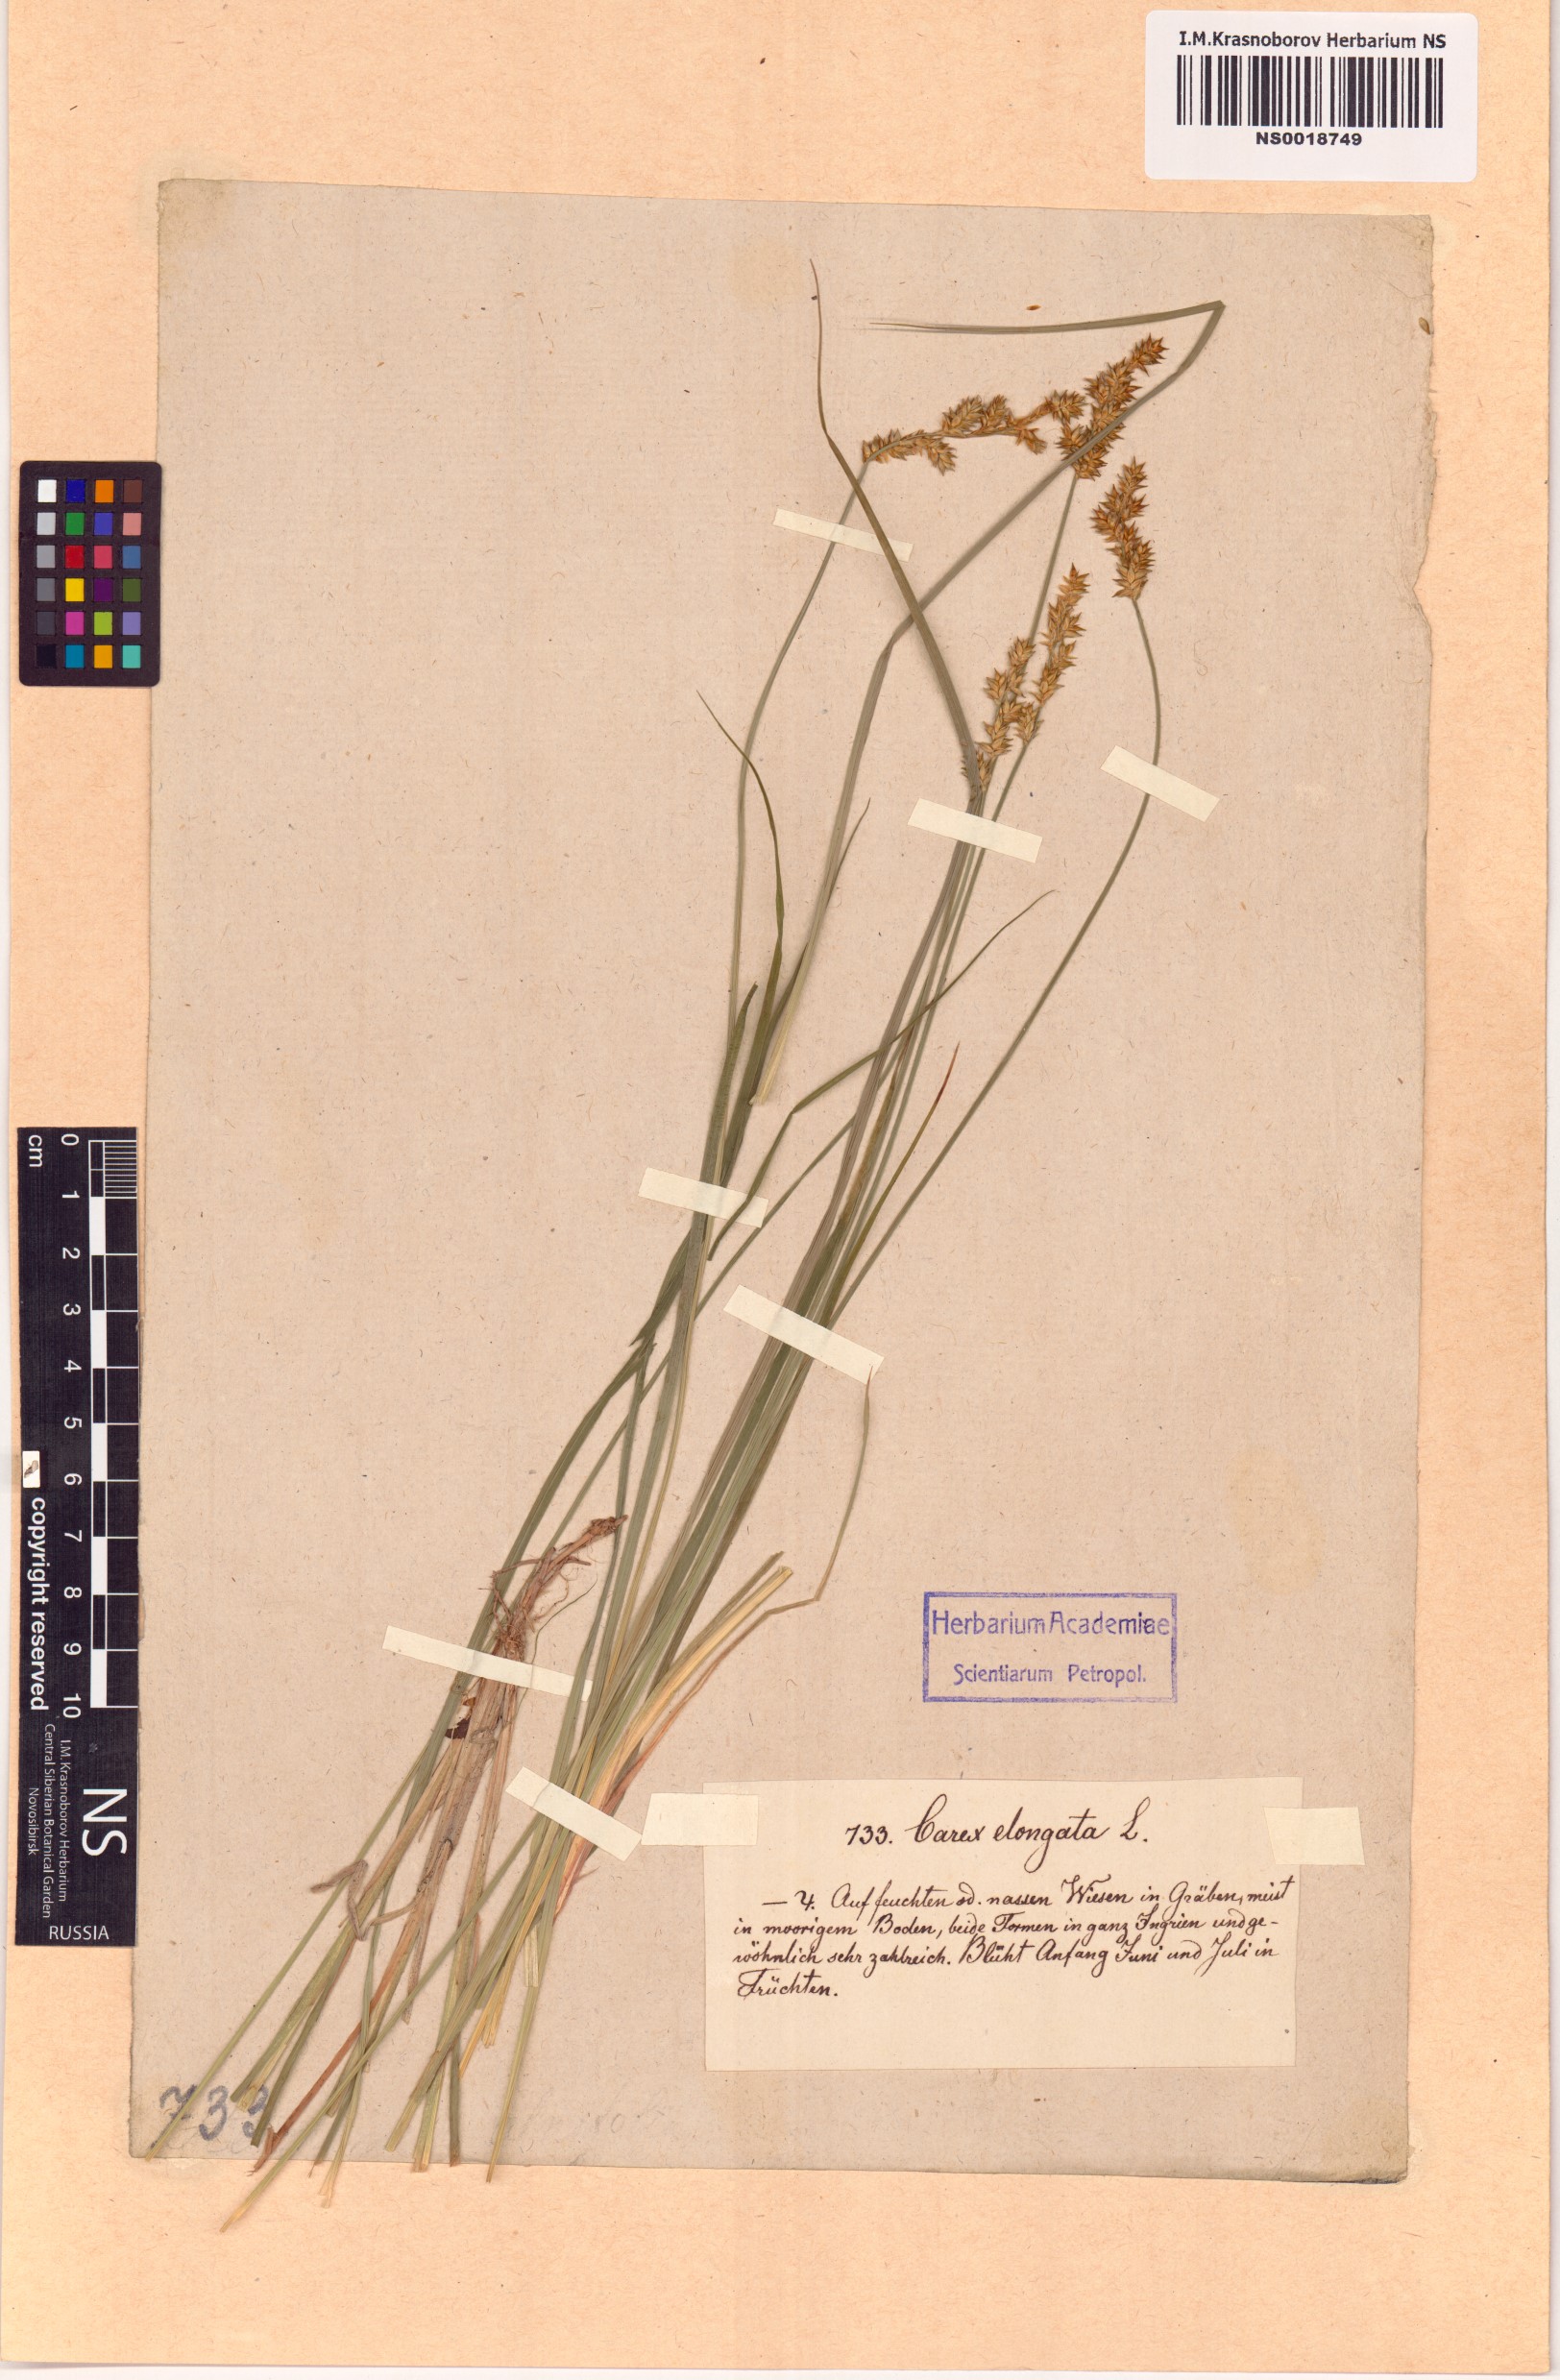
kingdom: Plantae
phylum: Tracheophyta
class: Liliopsida
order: Poales
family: Cyperaceae
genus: Carex
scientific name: Carex elongata
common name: Elongated sedge
